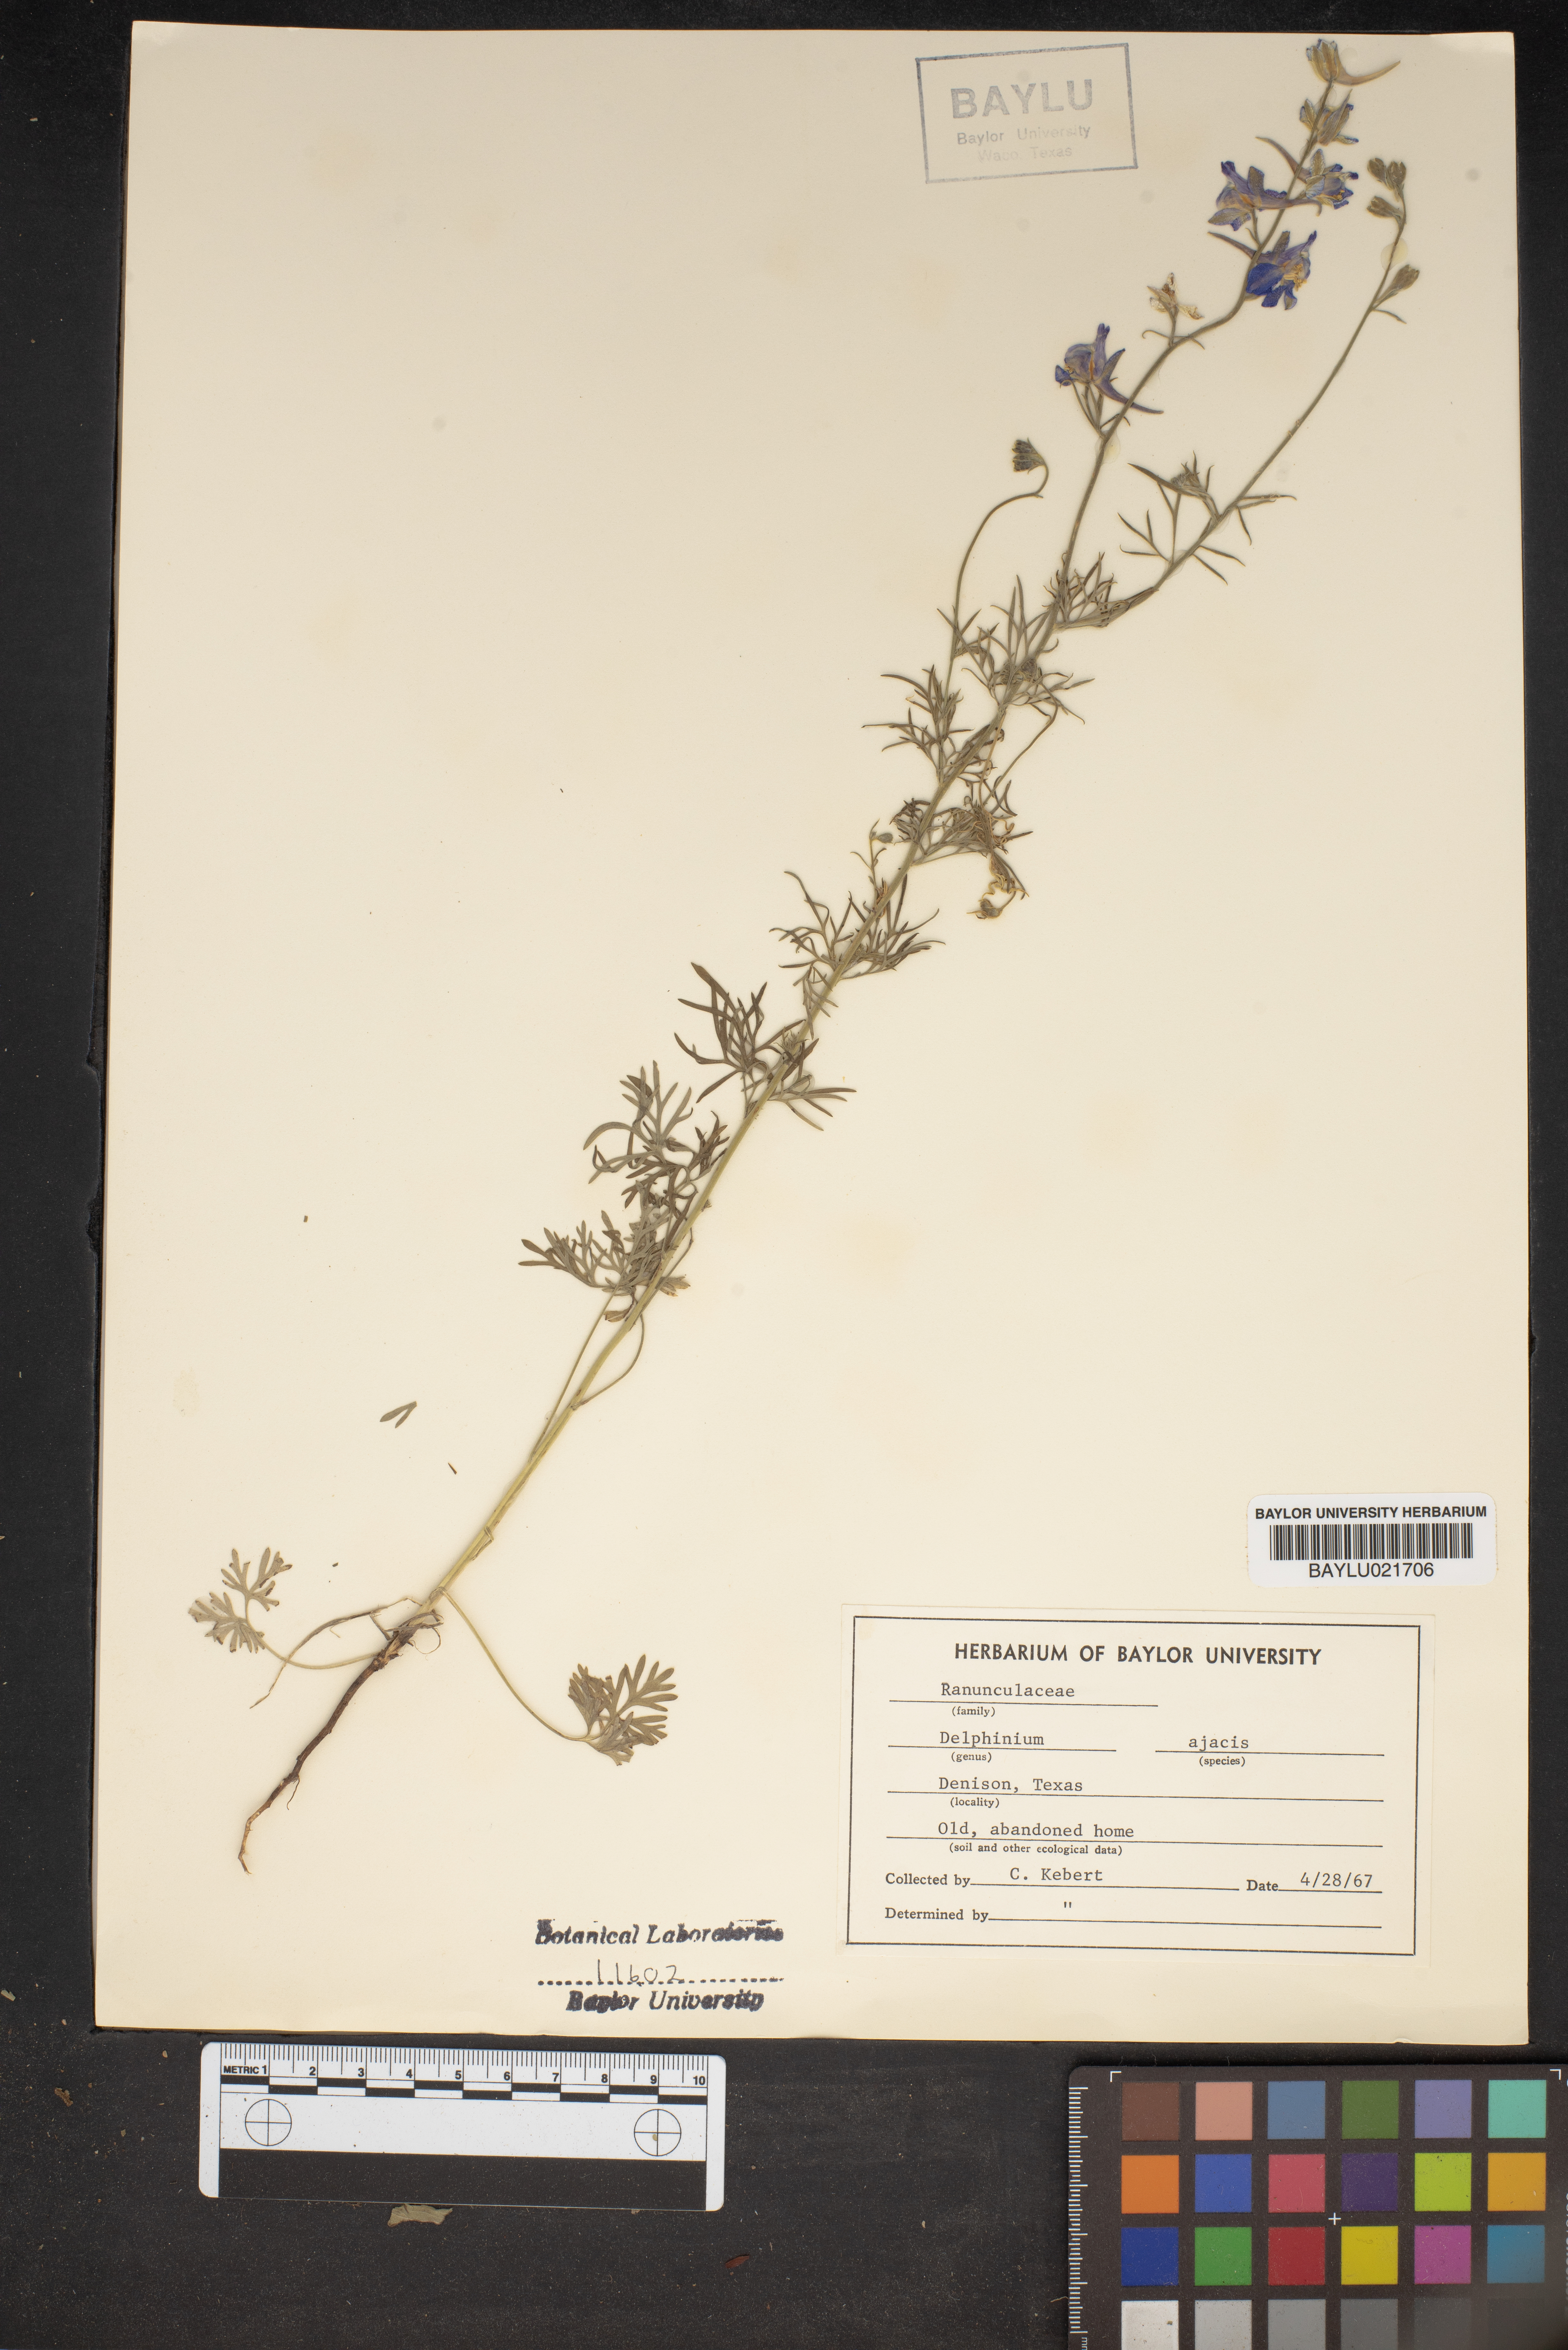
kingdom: Plantae
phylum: Tracheophyta
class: Magnoliopsida
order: Ranunculales
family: Ranunculaceae
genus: Delphinium
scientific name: Delphinium ajacis
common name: Doubtful knight's-spur
